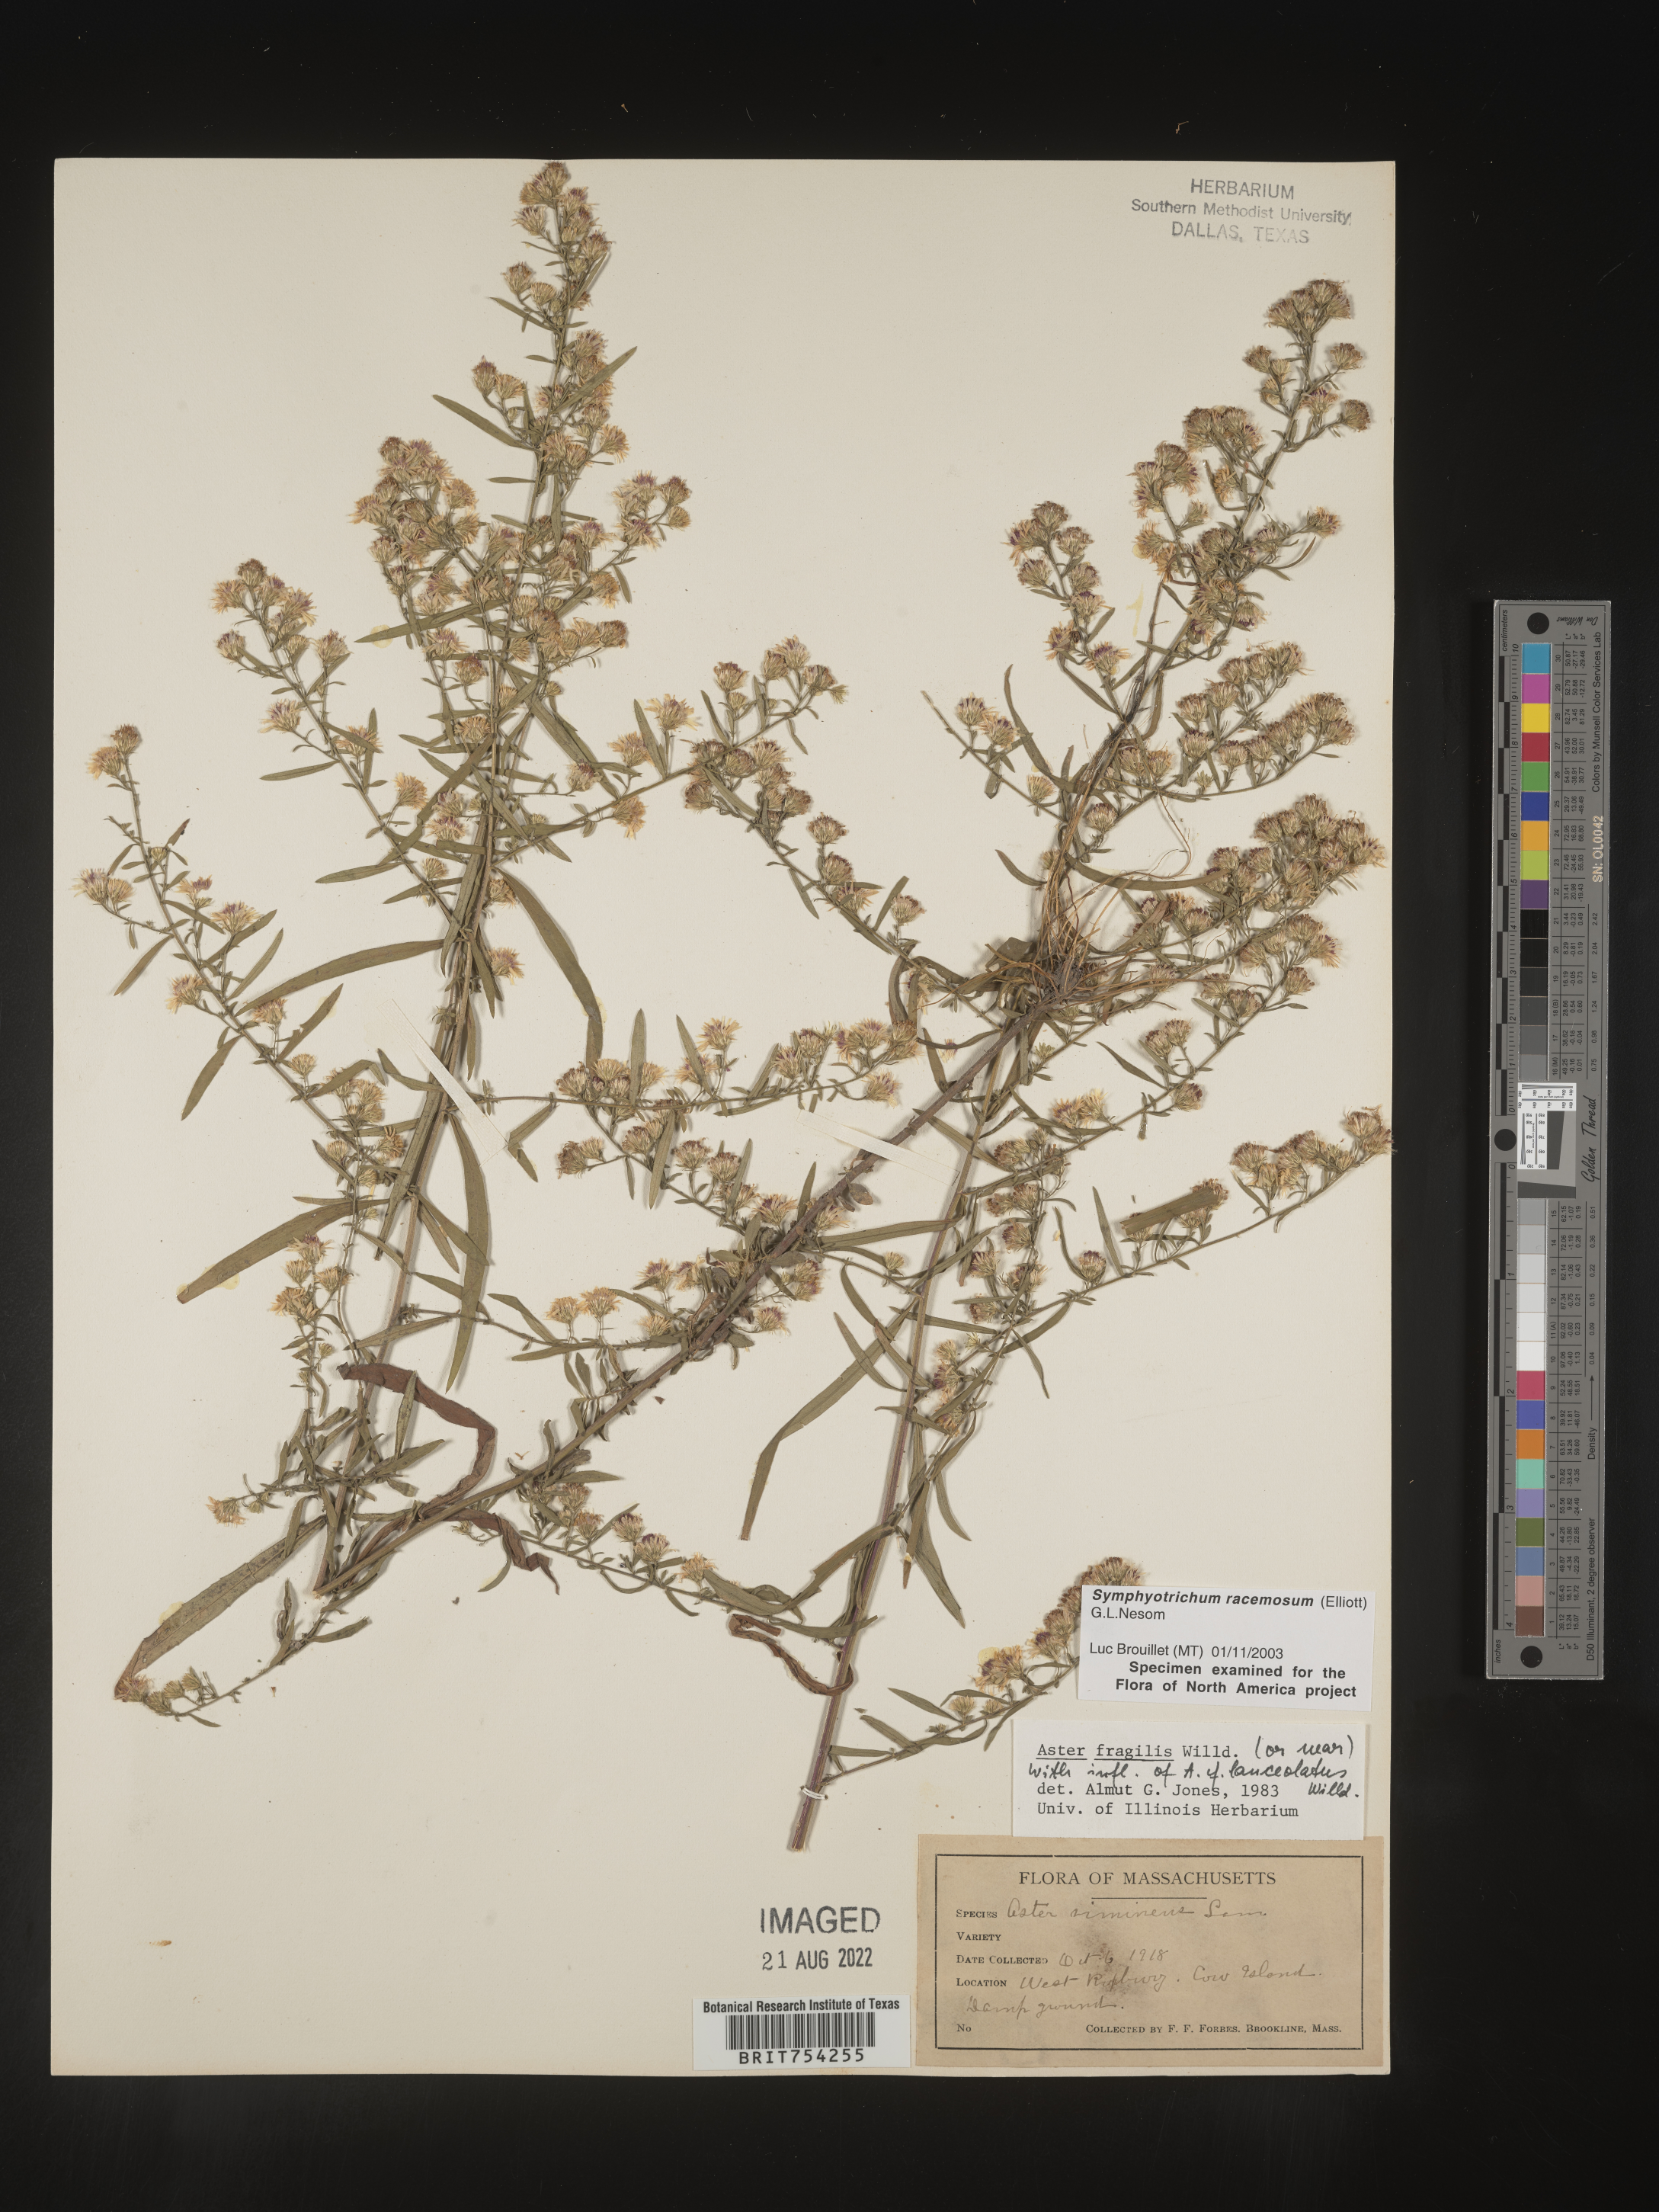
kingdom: Plantae
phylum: Tracheophyta
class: Magnoliopsida
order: Asterales
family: Asteraceae
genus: Symphyotrichum
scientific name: Symphyotrichum racemosum
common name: Small white aster
